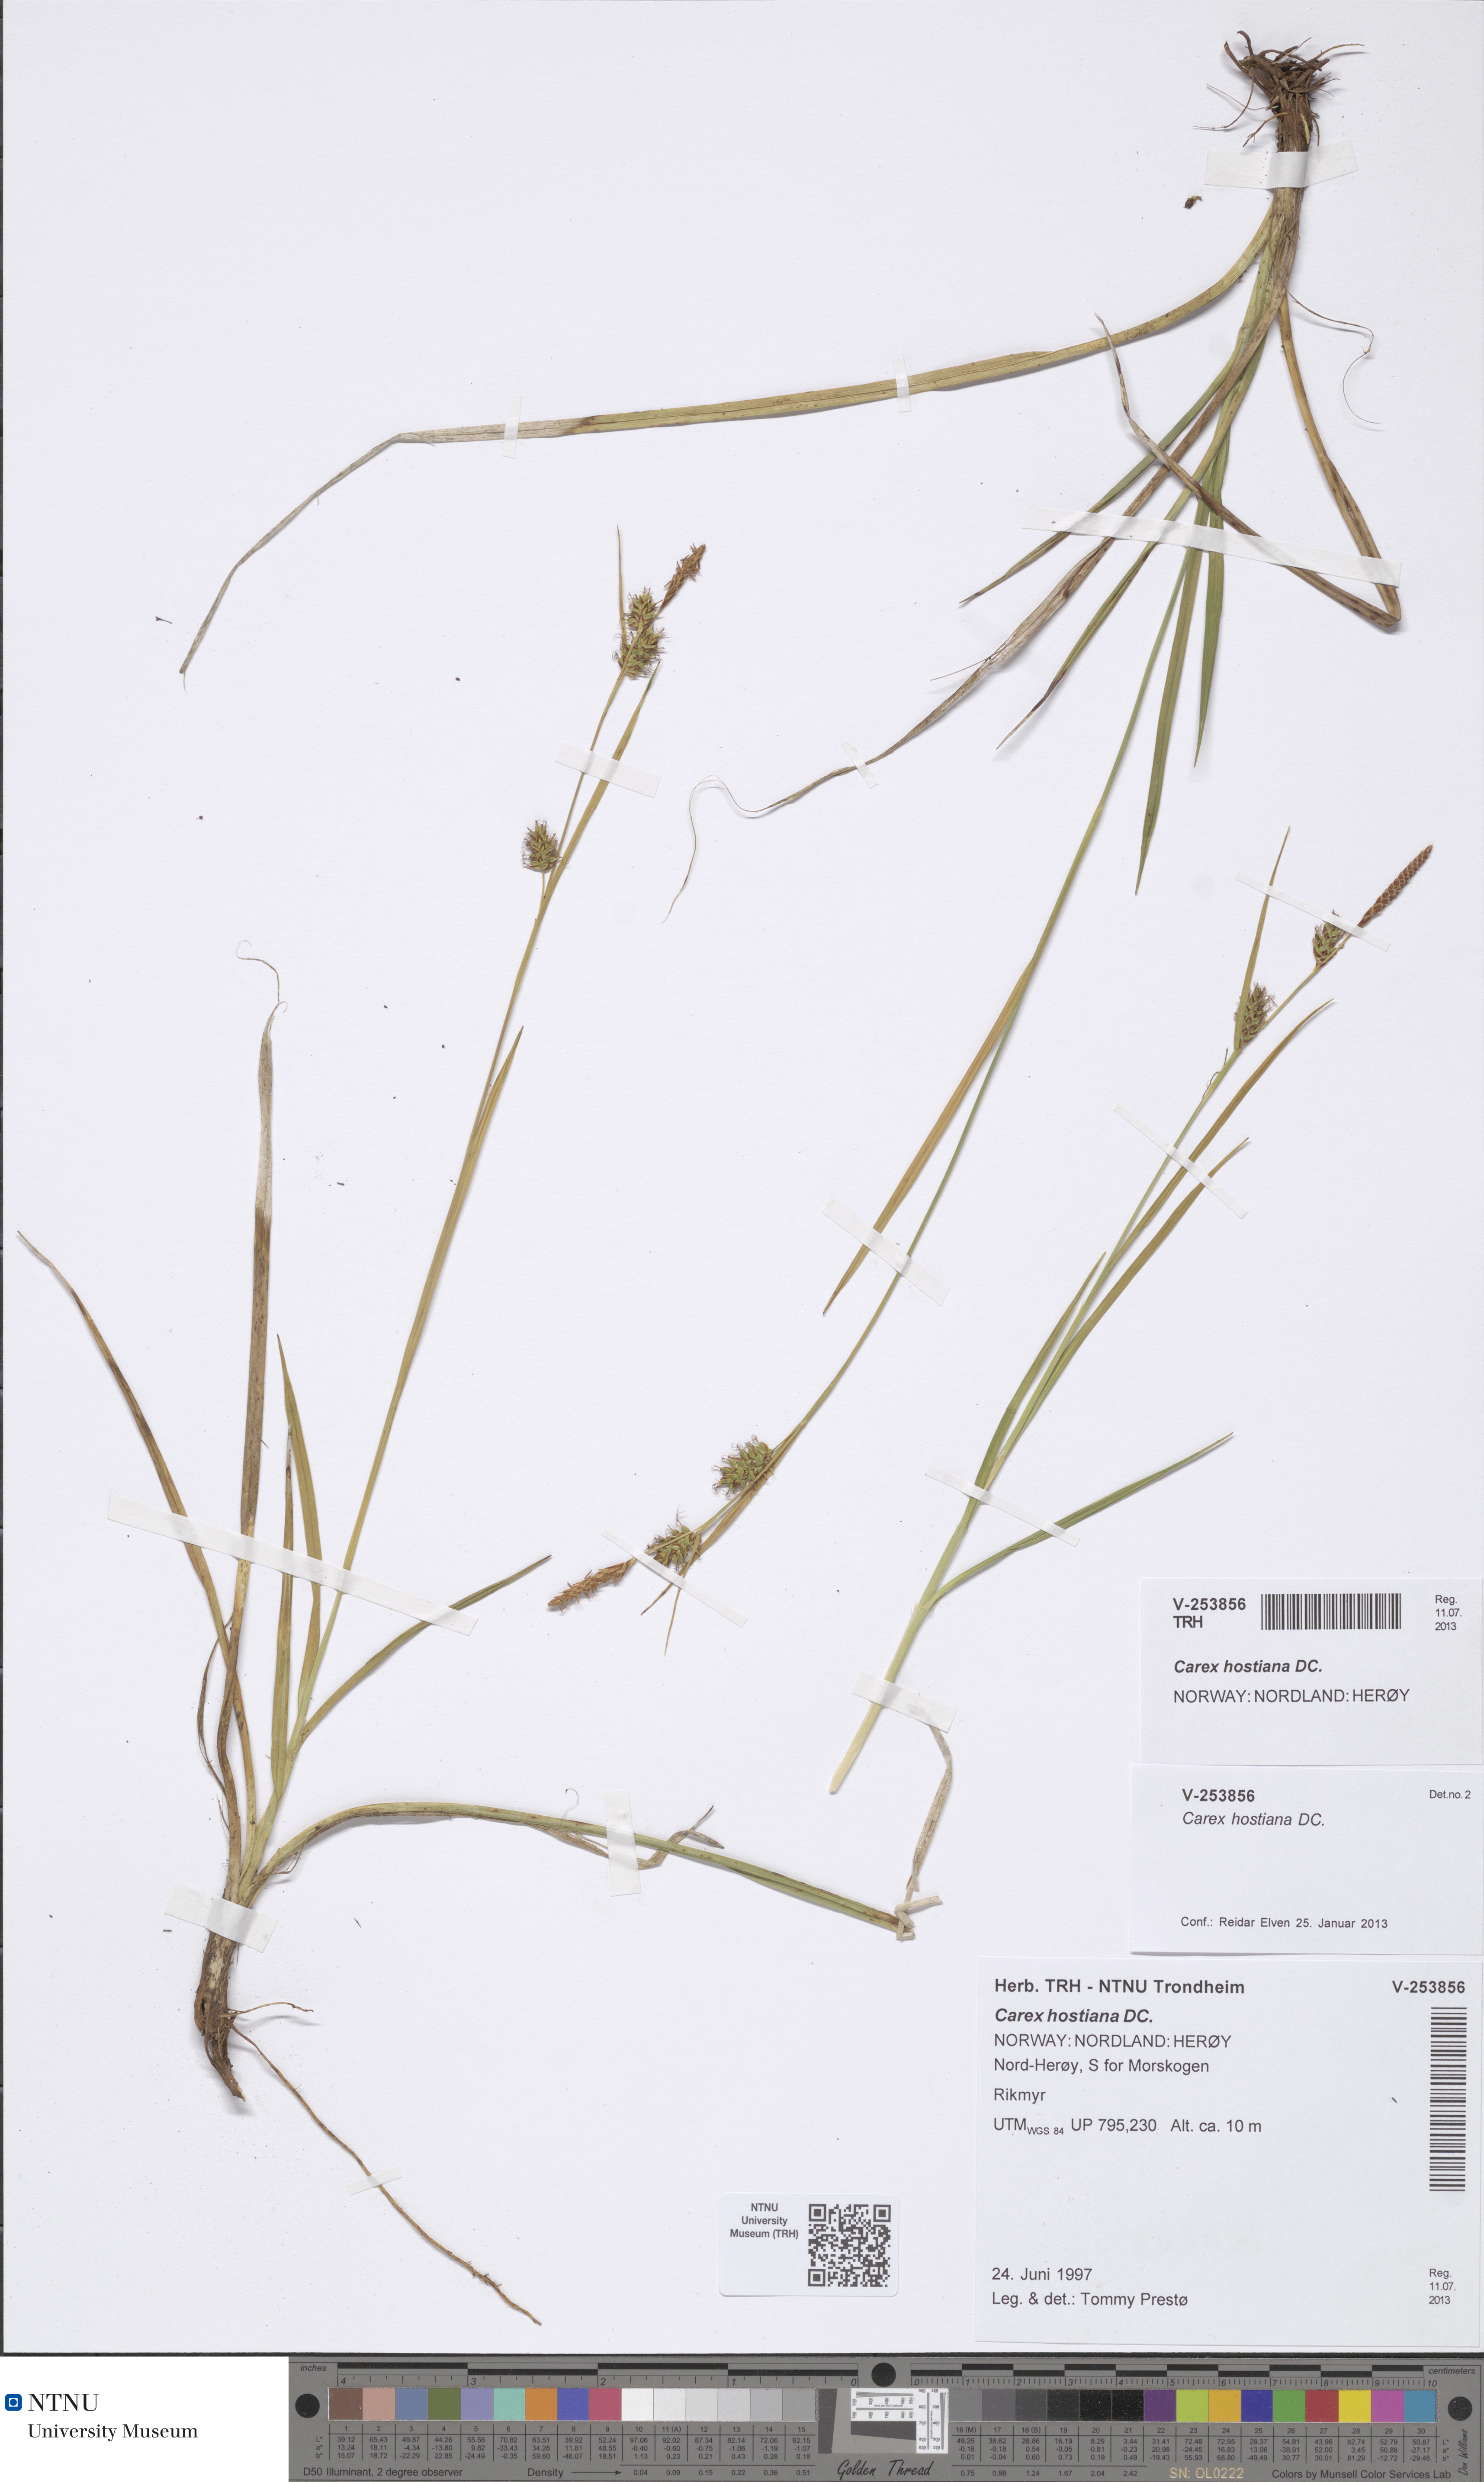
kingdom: Plantae
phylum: Tracheophyta
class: Liliopsida
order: Poales
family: Cyperaceae
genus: Carex
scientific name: Carex hostiana
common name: Tawny sedge
